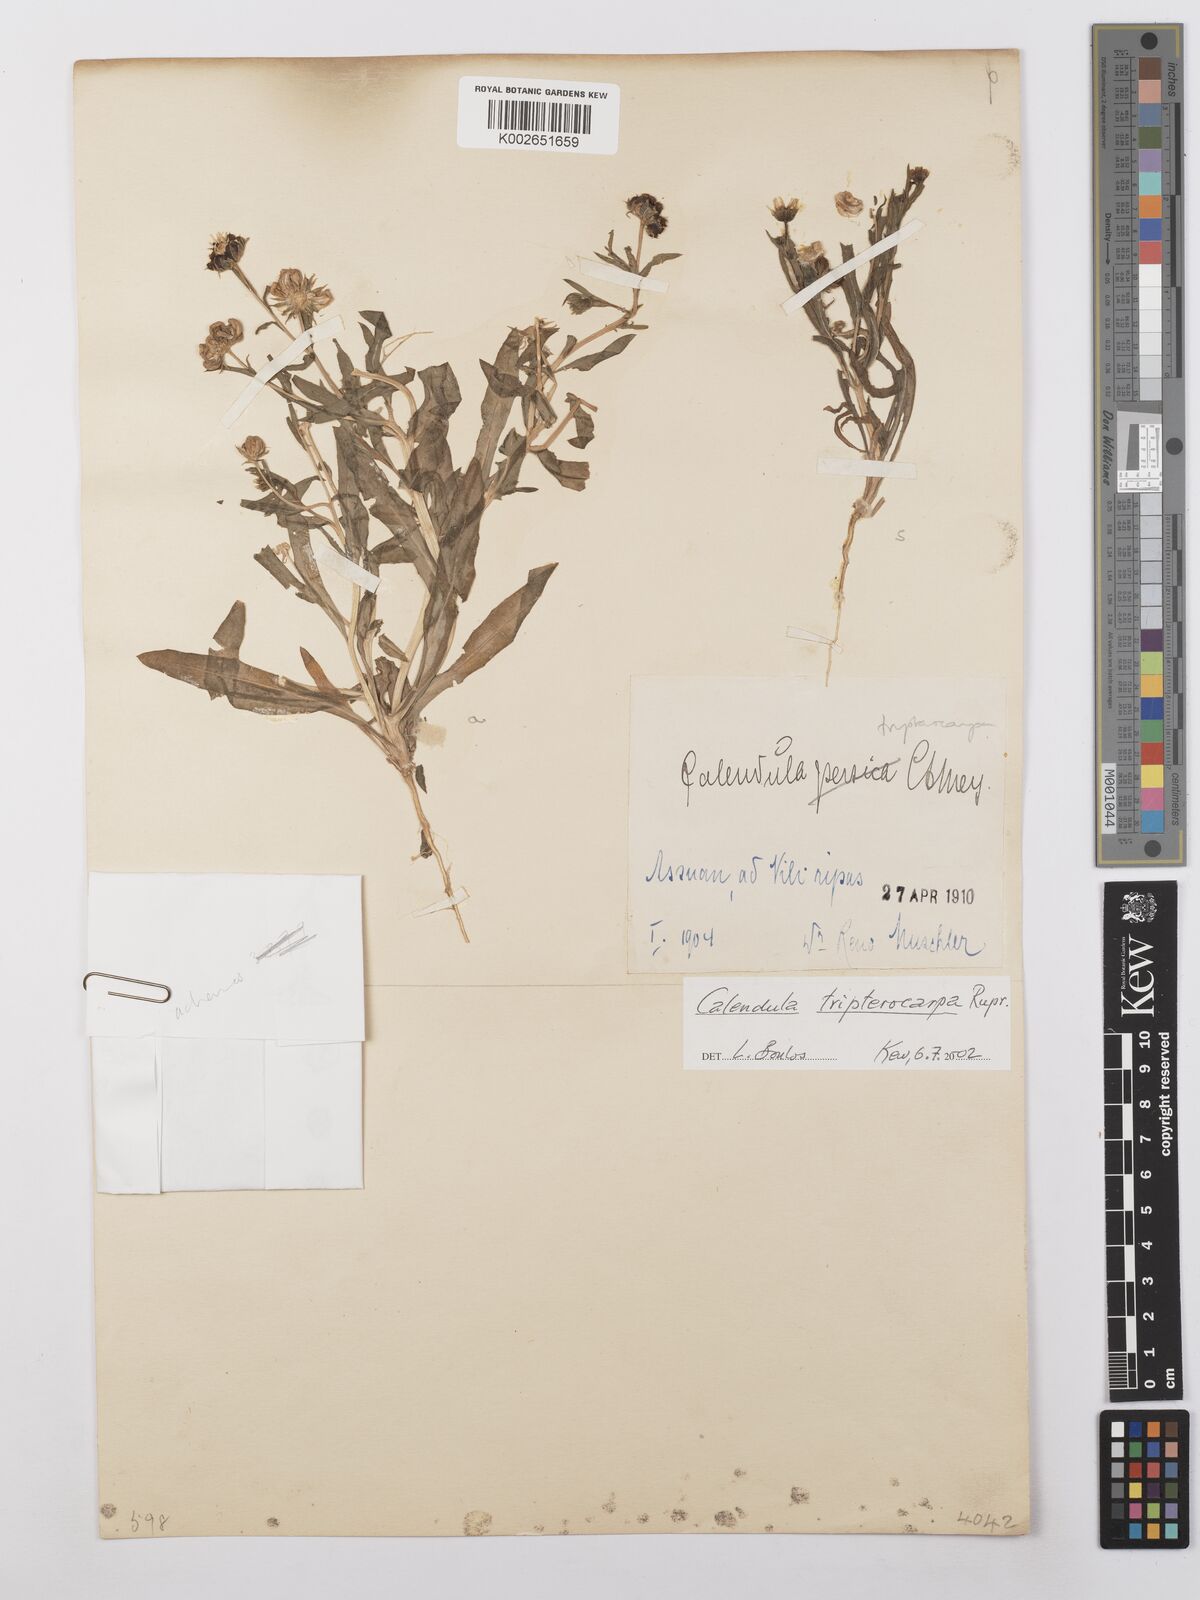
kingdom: Plantae
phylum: Tracheophyta
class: Magnoliopsida
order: Asterales
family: Asteraceae
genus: Calendula
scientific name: Calendula tripterocarpa
